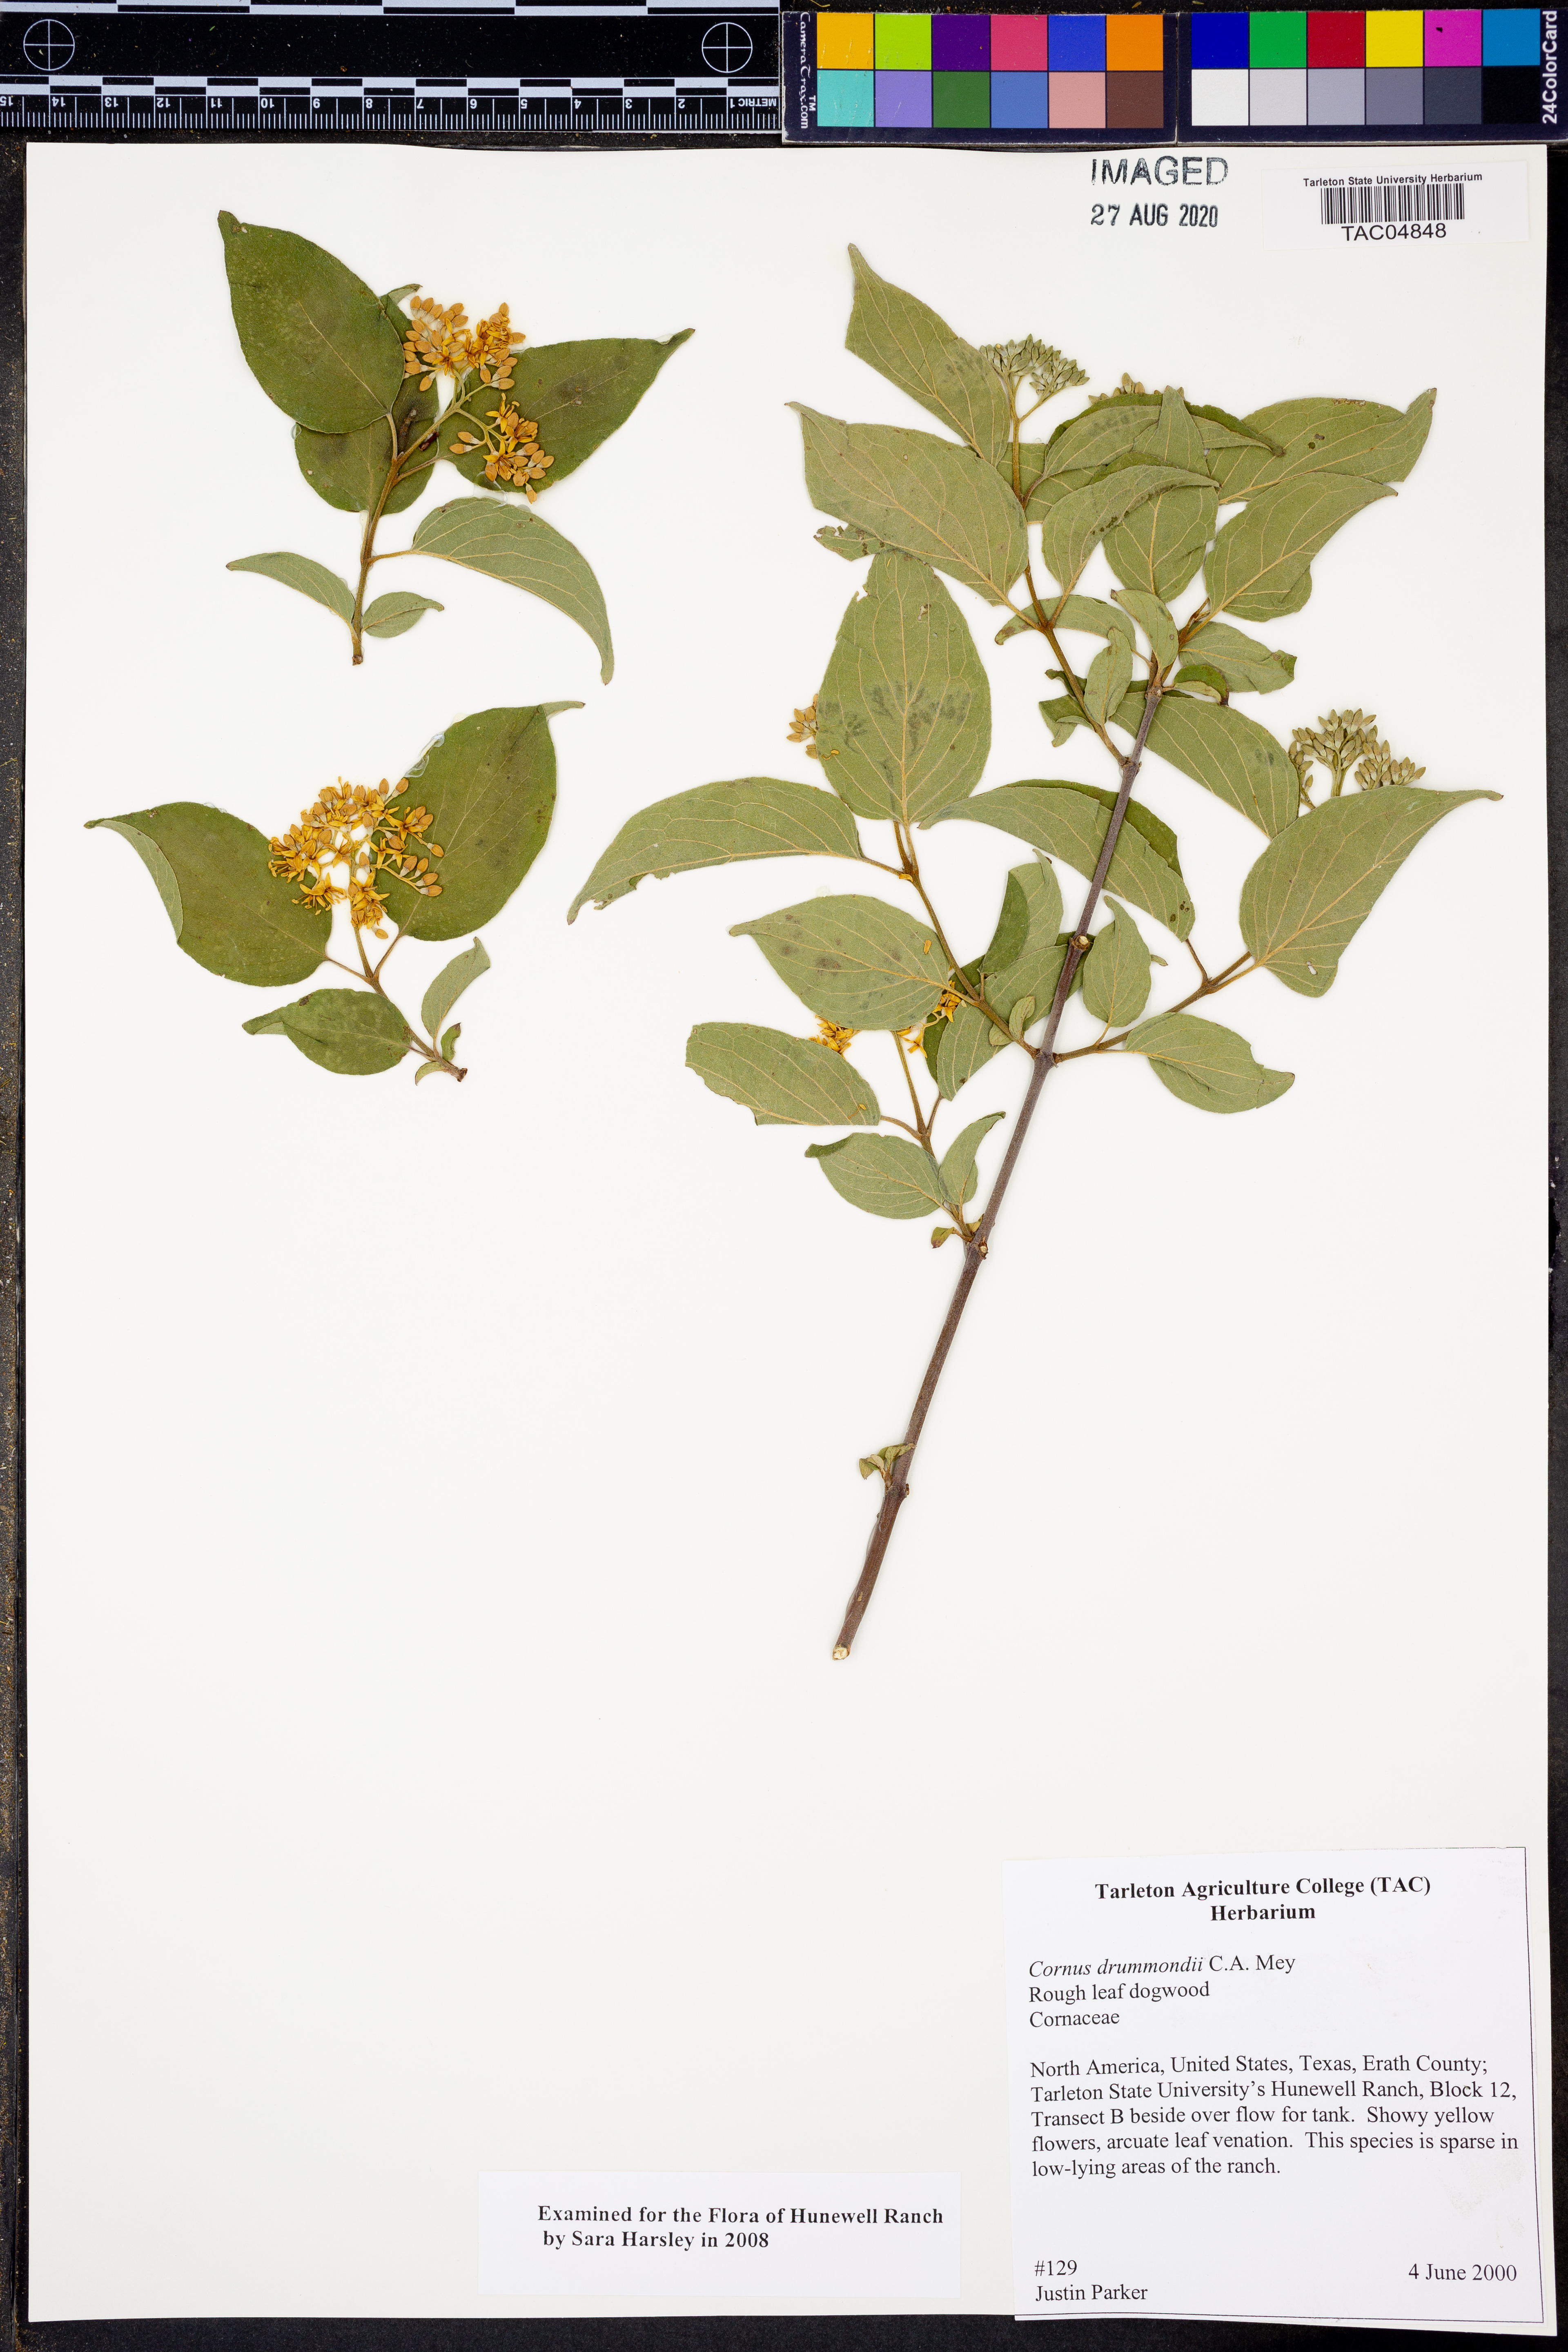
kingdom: Plantae
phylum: Tracheophyta
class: Magnoliopsida
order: Cornales
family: Cornaceae
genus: Cornus
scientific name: Cornus drummondii
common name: Rough-leaf dogwood
